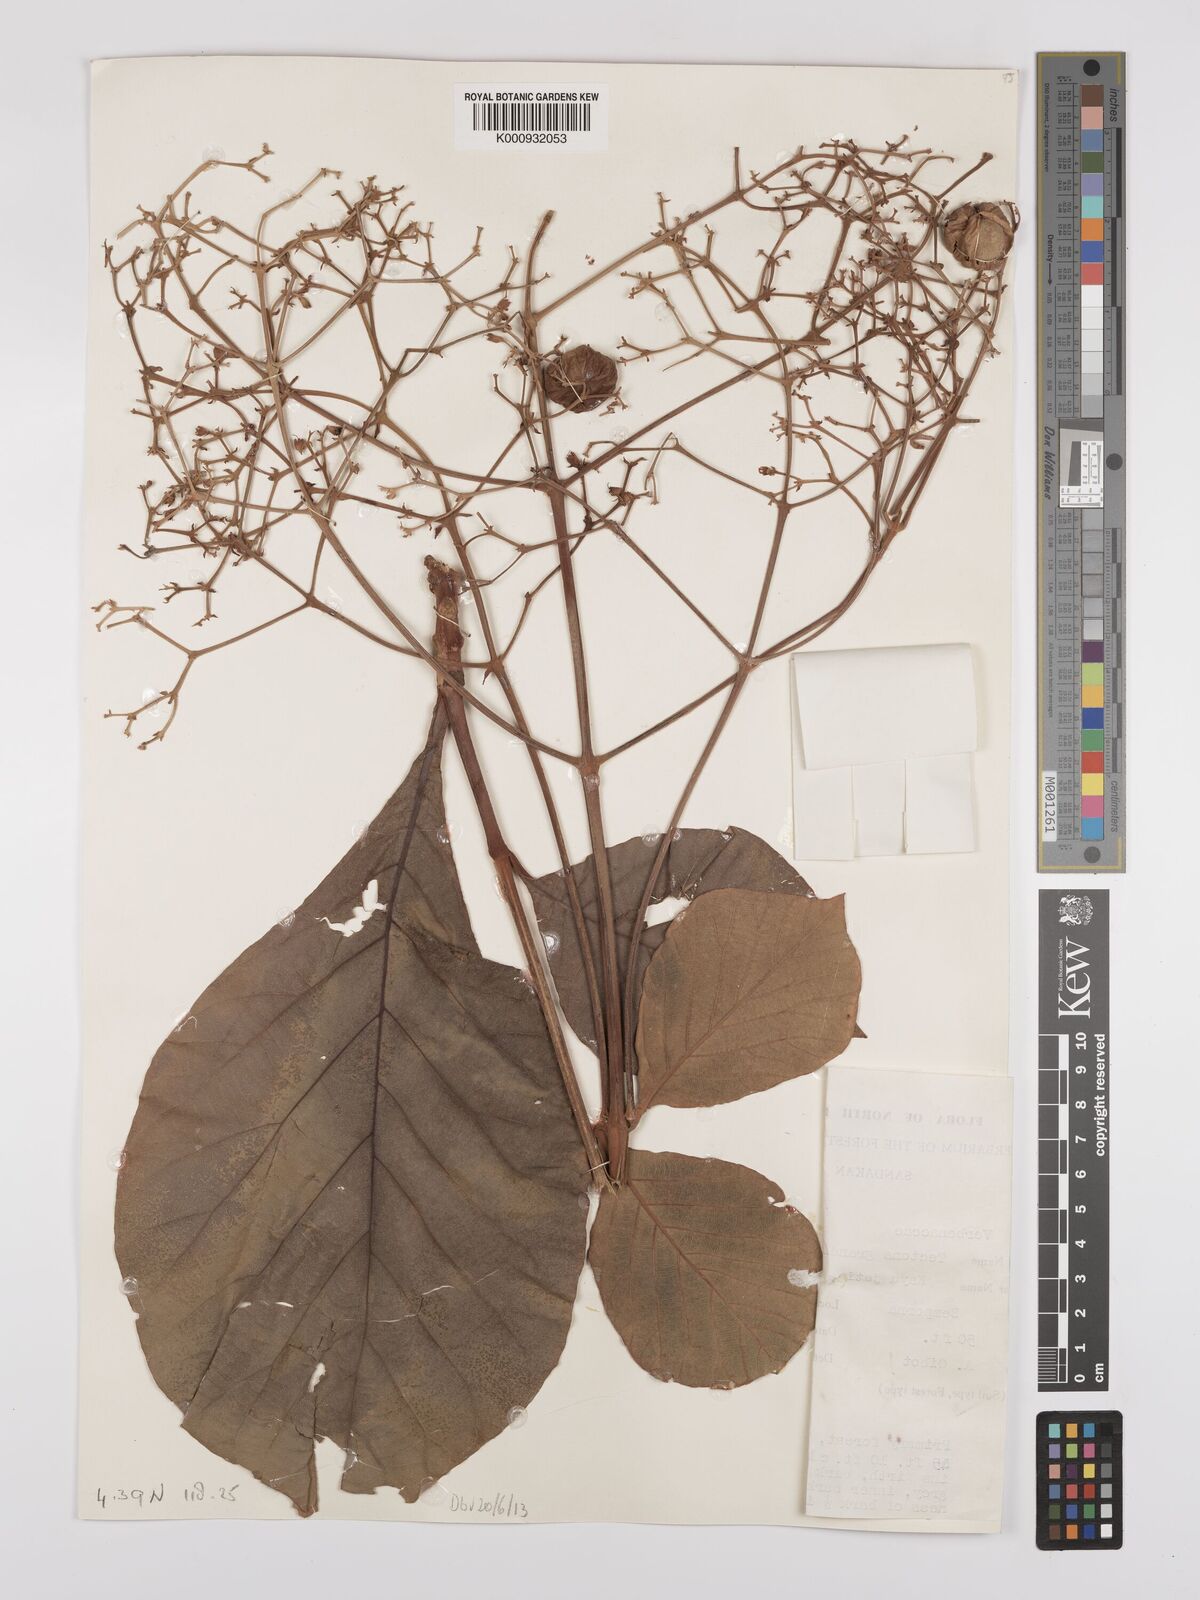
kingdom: Plantae
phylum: Tracheophyta
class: Magnoliopsida
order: Lamiales
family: Lamiaceae
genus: Tectona
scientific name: Tectona grandis
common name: Teak
